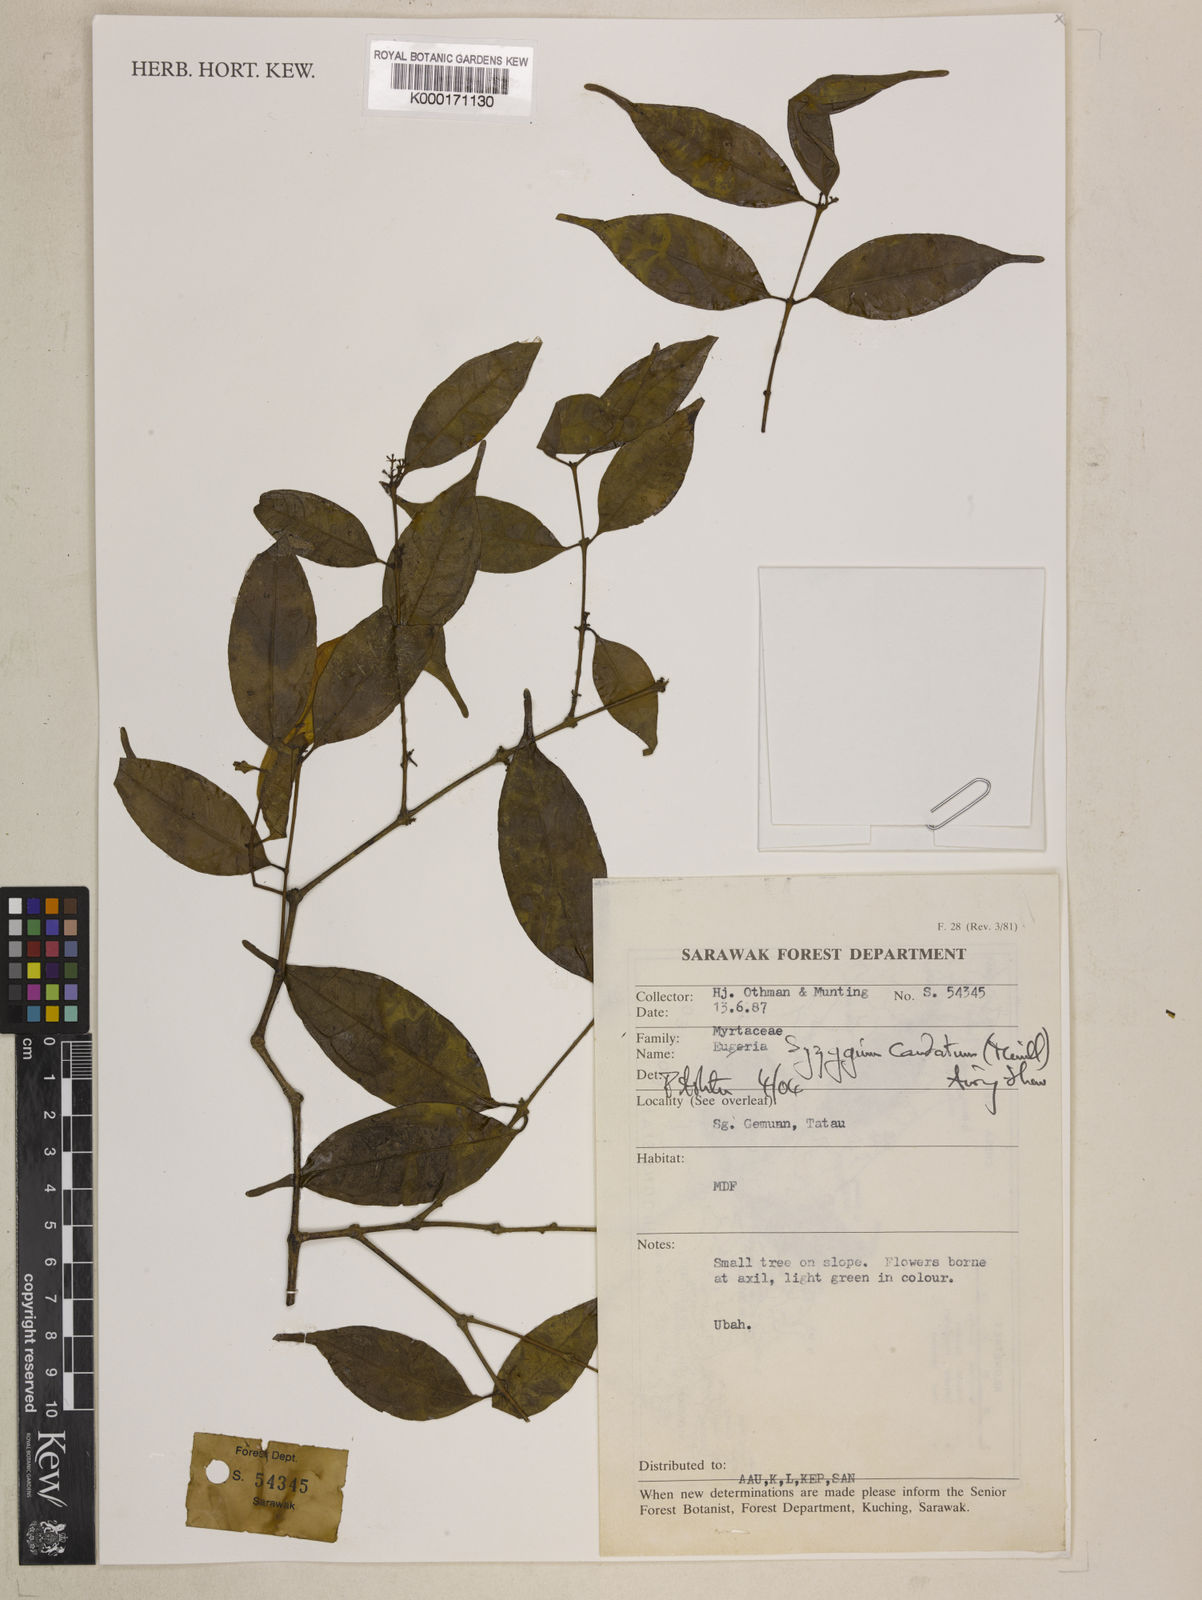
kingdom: Plantae
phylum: Tracheophyta
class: Magnoliopsida
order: Myrtales
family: Myrtaceae
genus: Syzygium
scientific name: Syzygium caudatum
